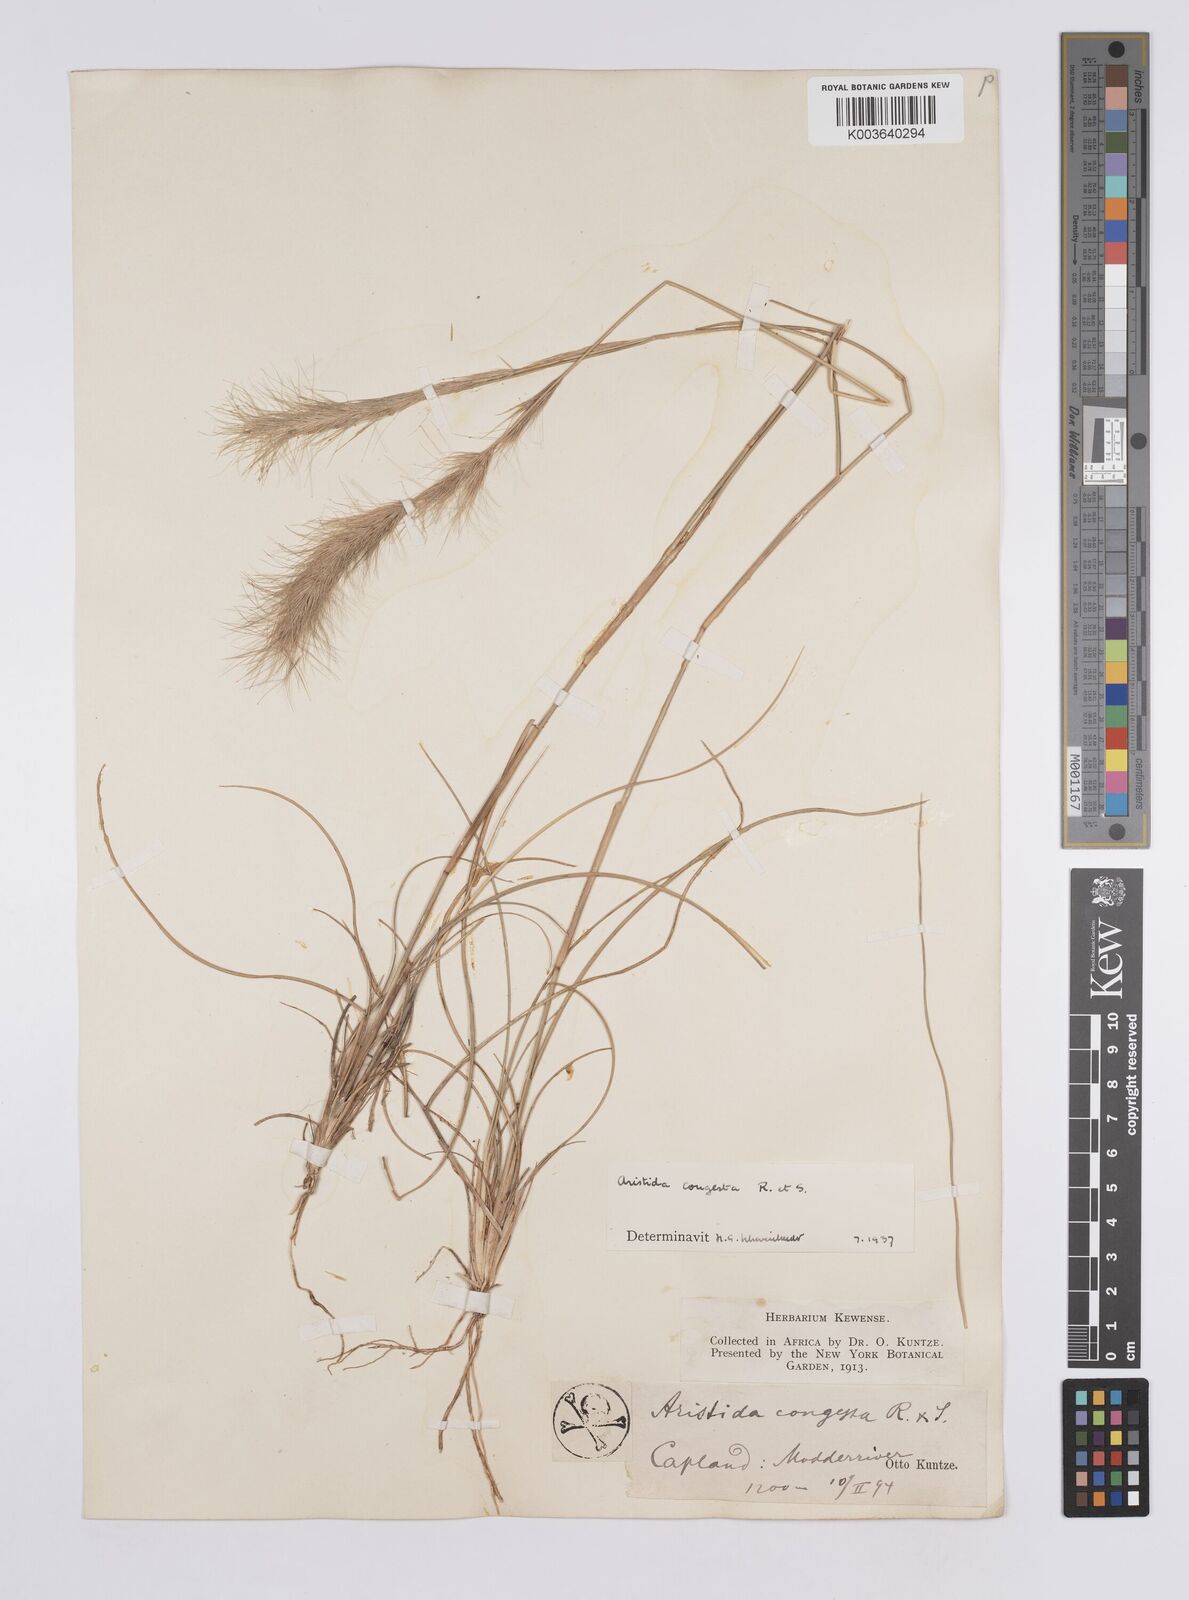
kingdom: Plantae
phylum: Tracheophyta
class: Liliopsida
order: Poales
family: Poaceae
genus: Aristida
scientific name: Aristida congesta
